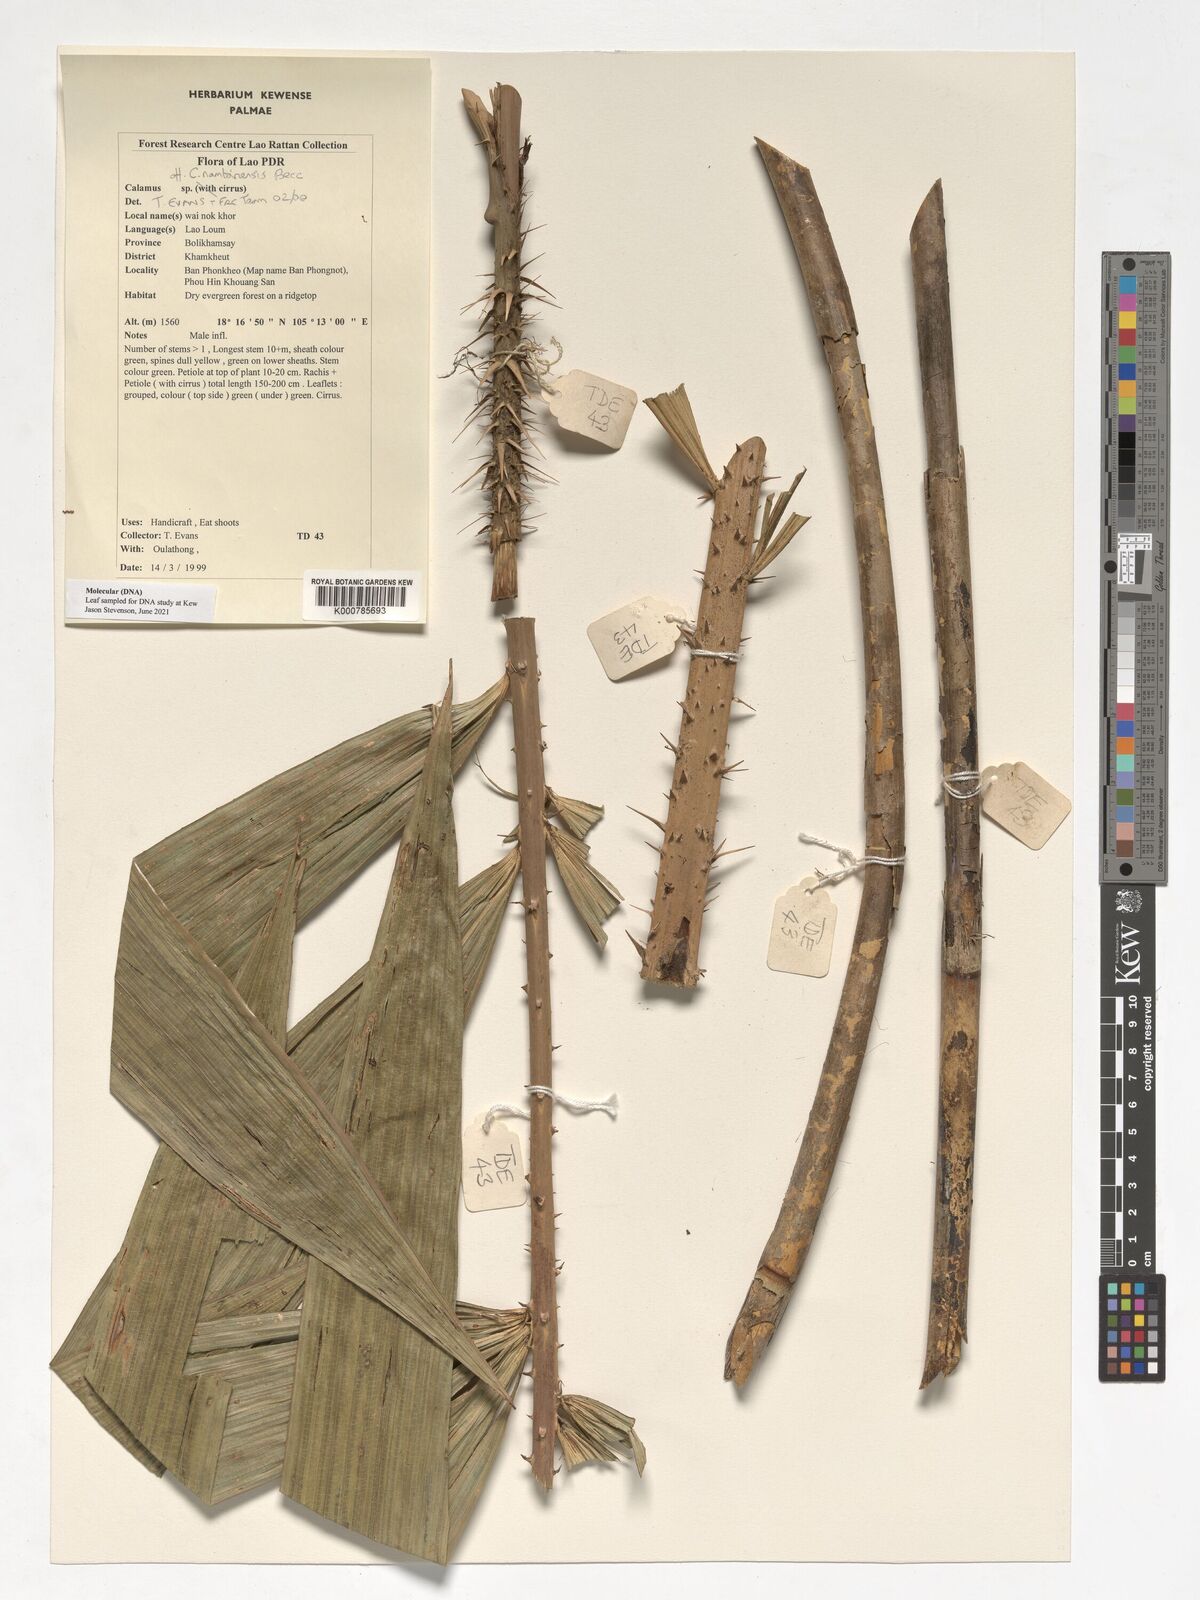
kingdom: Plantae
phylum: Tracheophyta
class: Liliopsida
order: Arecales
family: Arecaceae
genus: Calamus
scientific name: Calamus inermis
